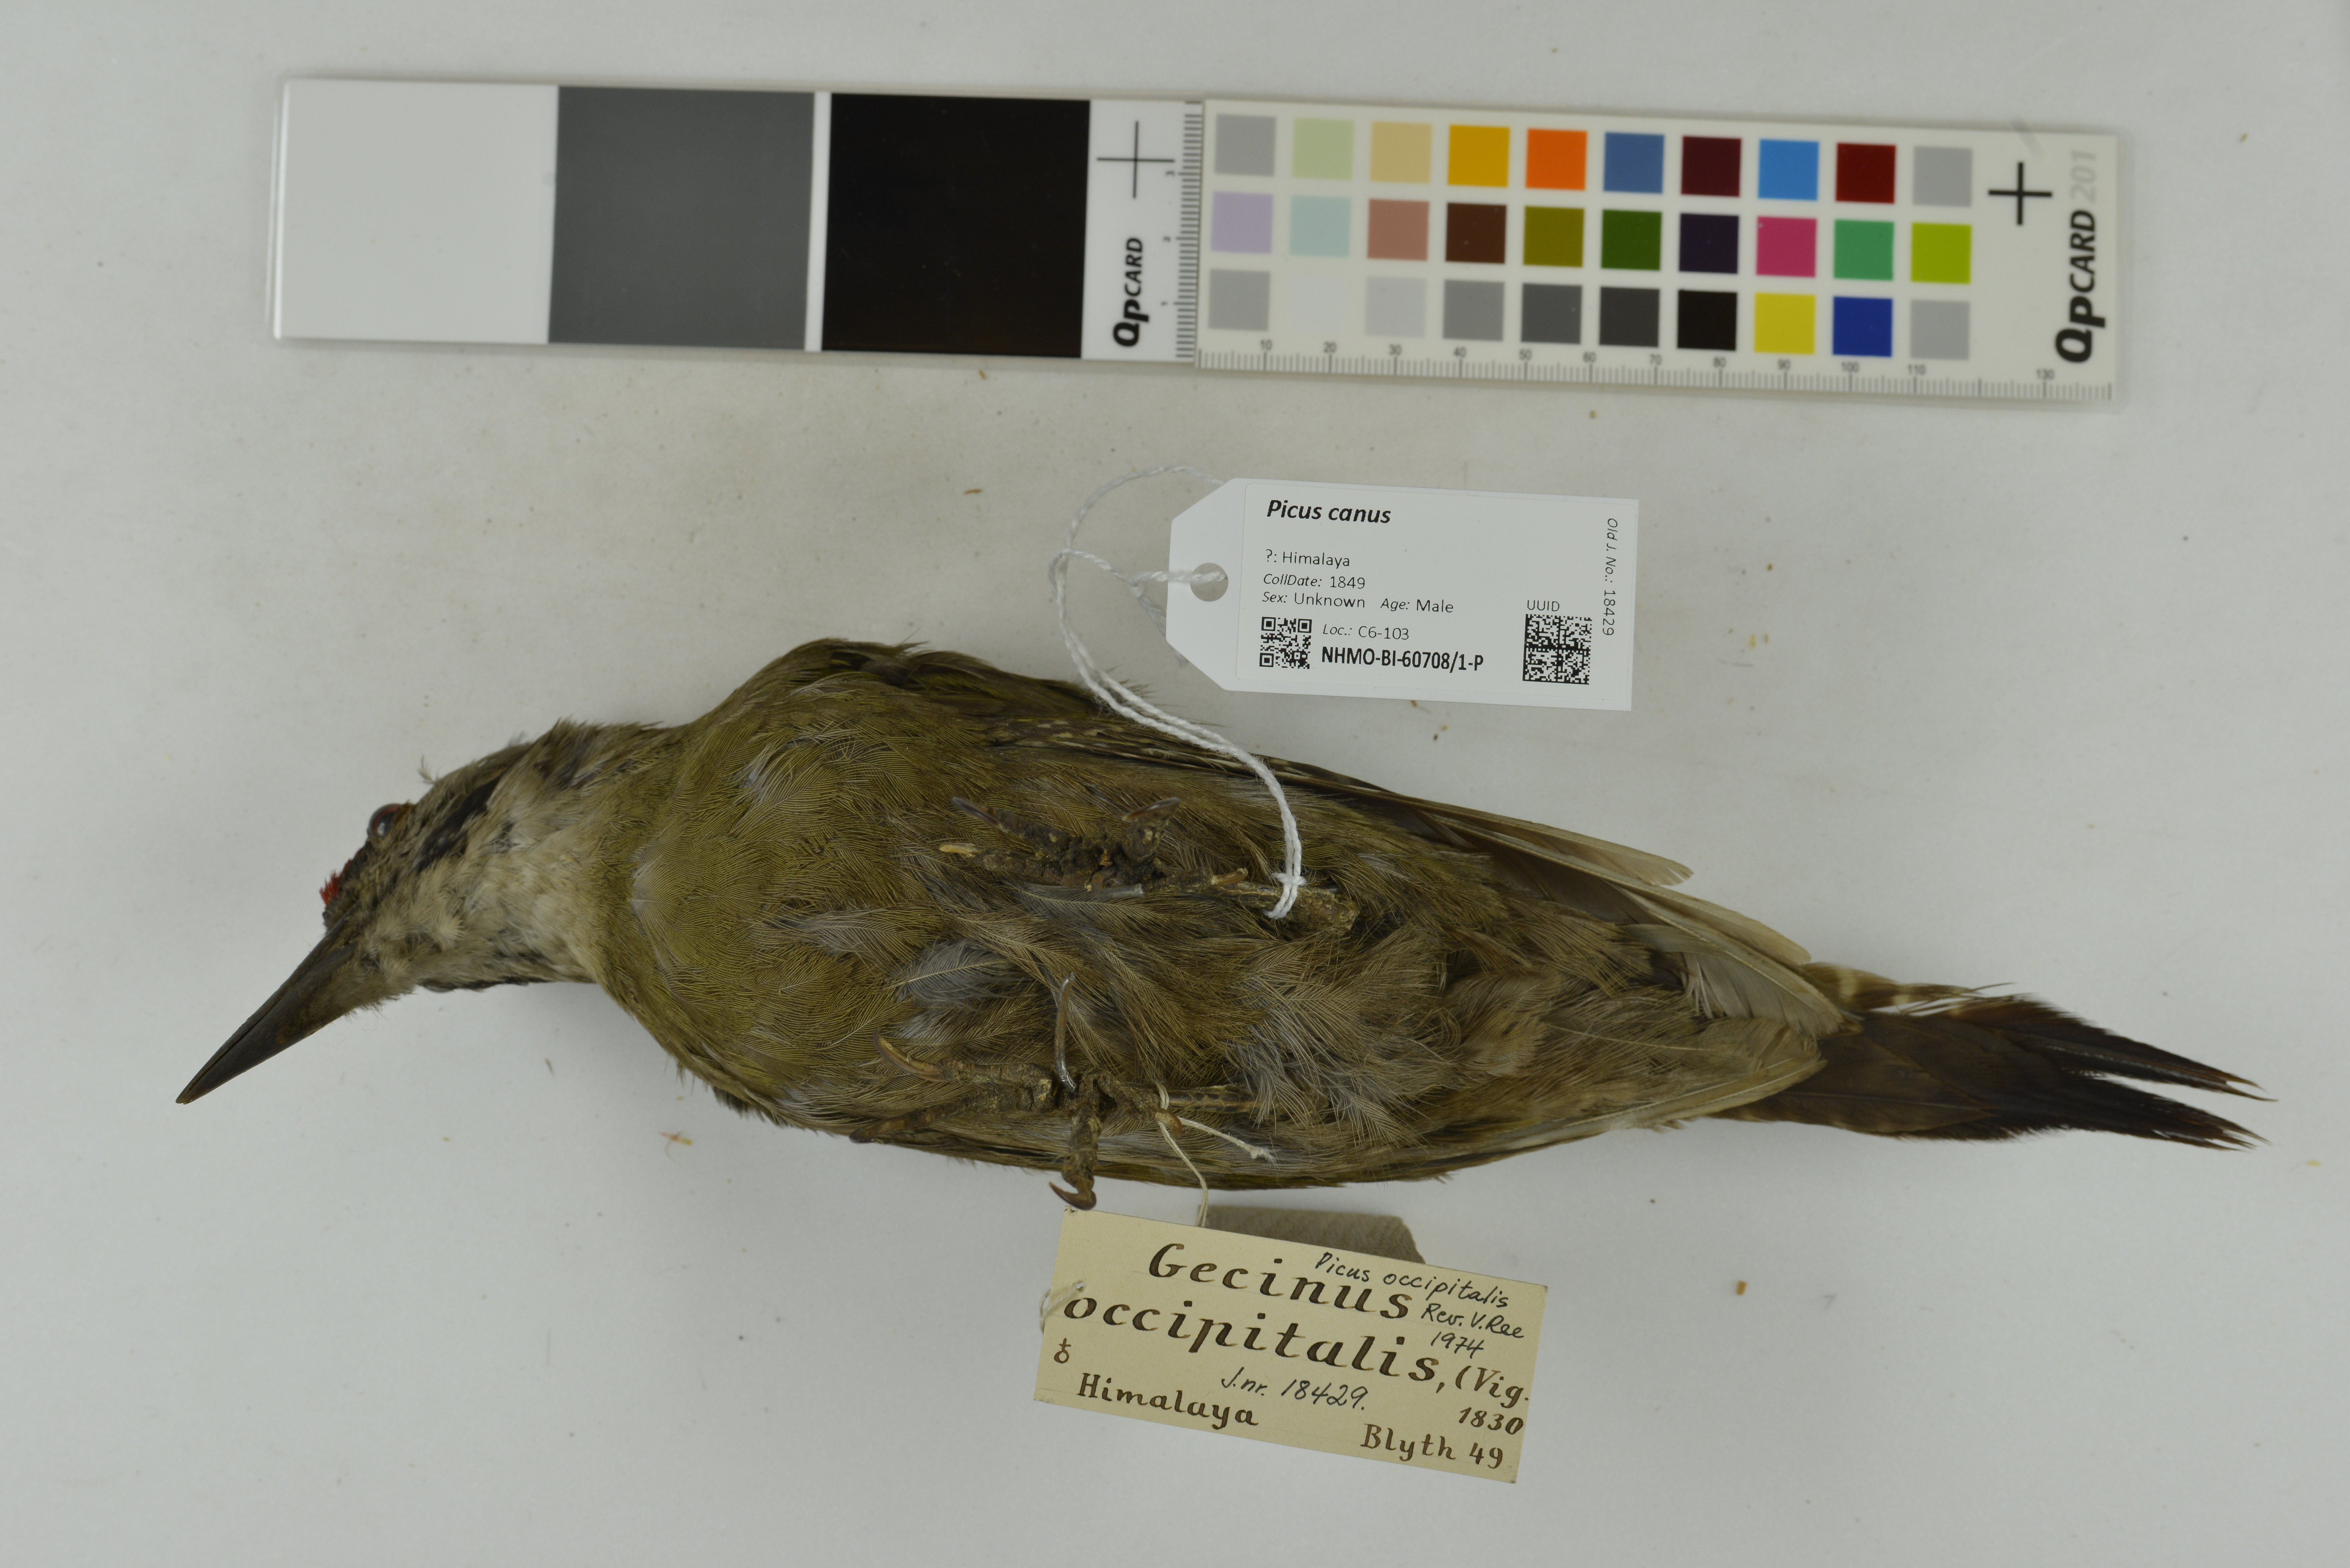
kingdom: Animalia
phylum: Chordata
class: Aves
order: Piciformes
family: Picidae
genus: Picus
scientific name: Picus canus
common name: Grey-headed woodpecker
